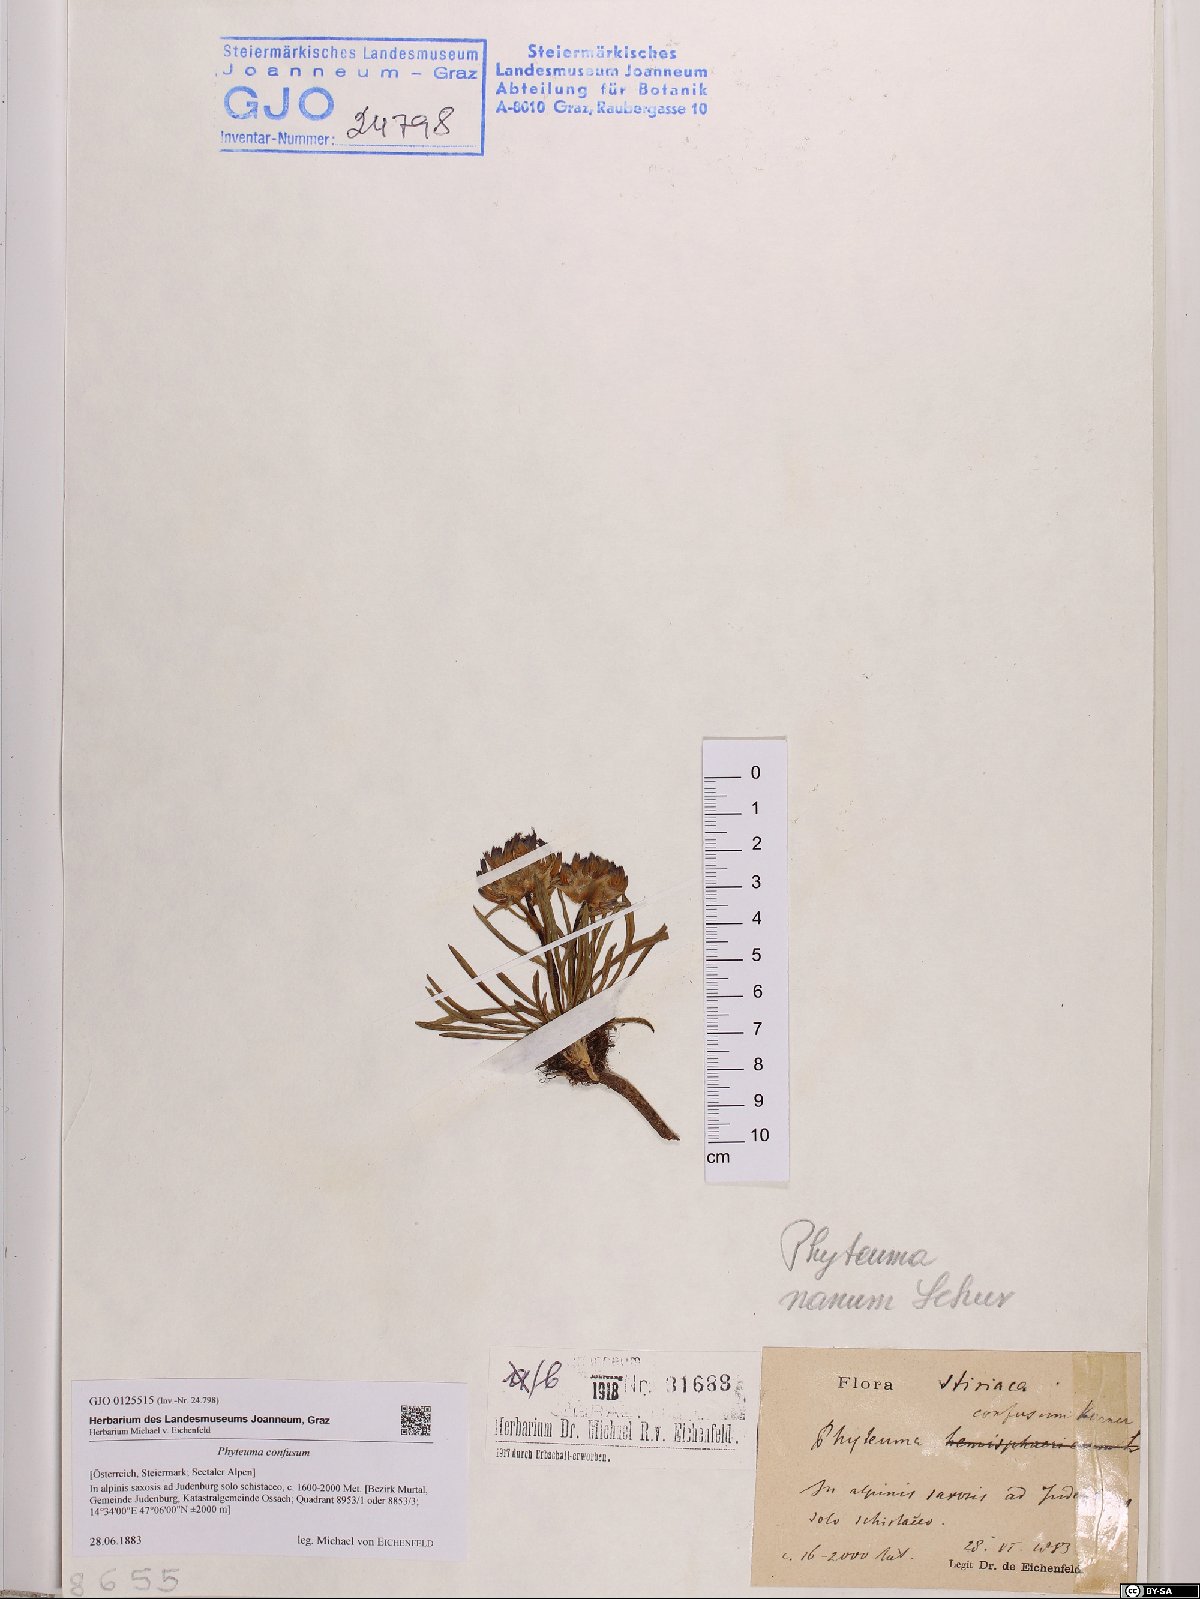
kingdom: Plantae
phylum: Tracheophyta
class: Magnoliopsida
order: Asterales
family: Campanulaceae
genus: Phyteuma
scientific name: Phyteuma confusum
